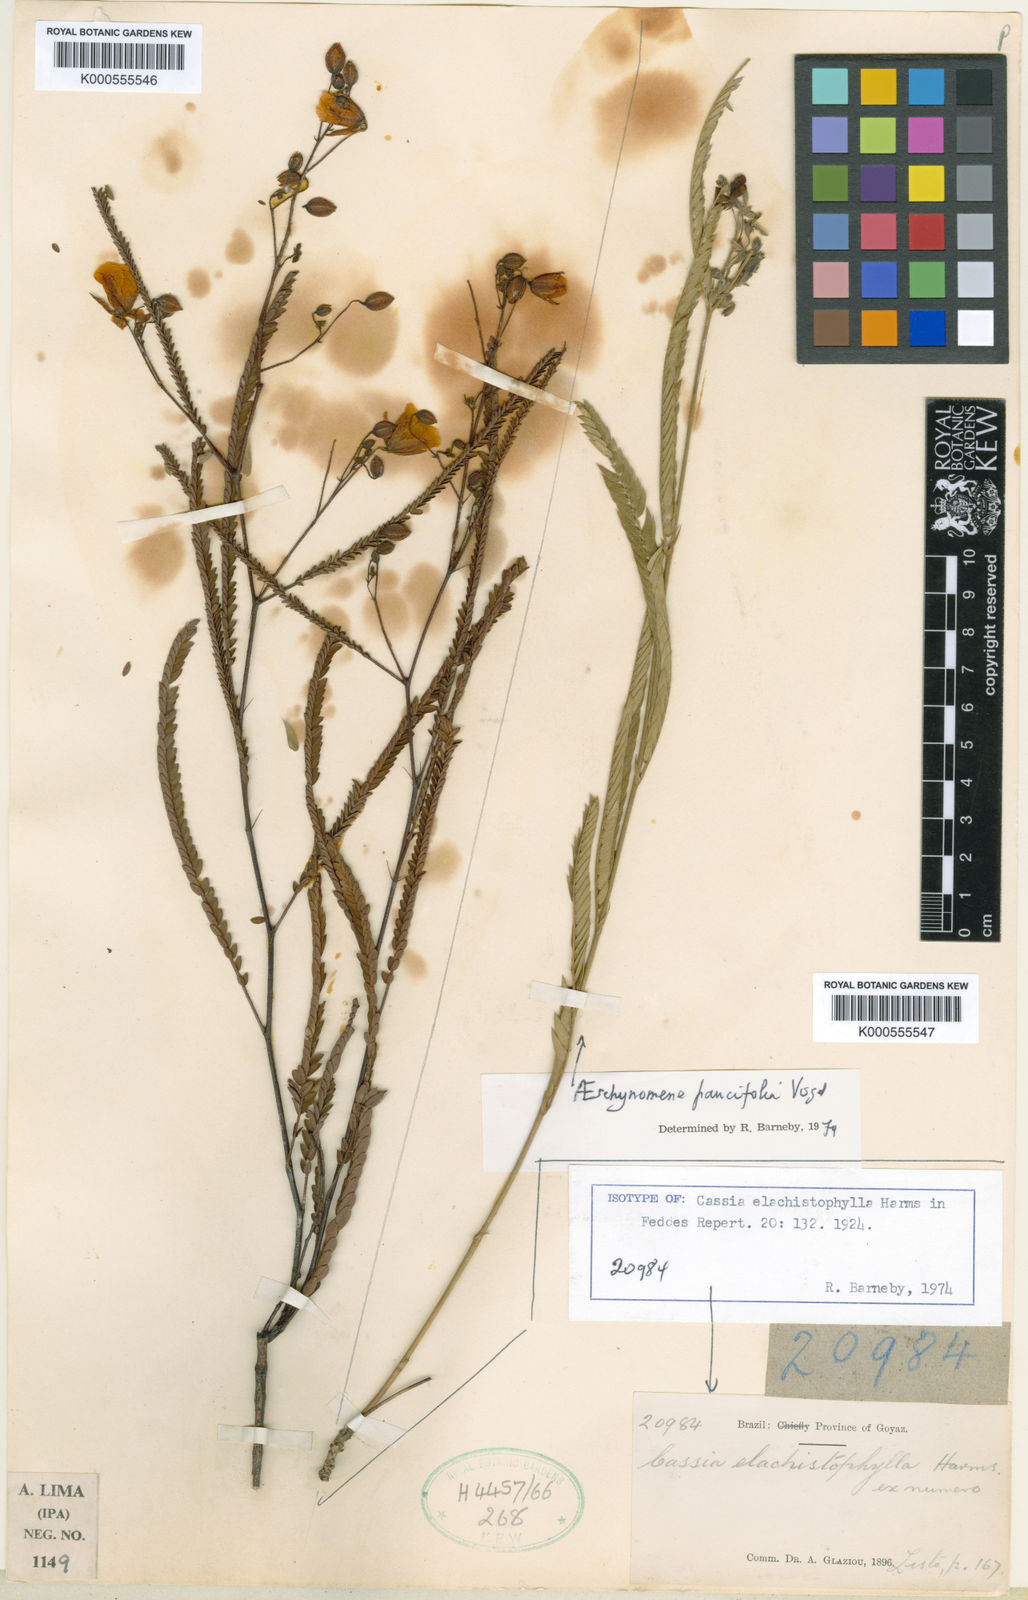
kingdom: Plantae
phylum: Tracheophyta
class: Magnoliopsida
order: Fabales
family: Fabaceae
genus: Chamaecrista
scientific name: Chamaecrista elachistophylla
